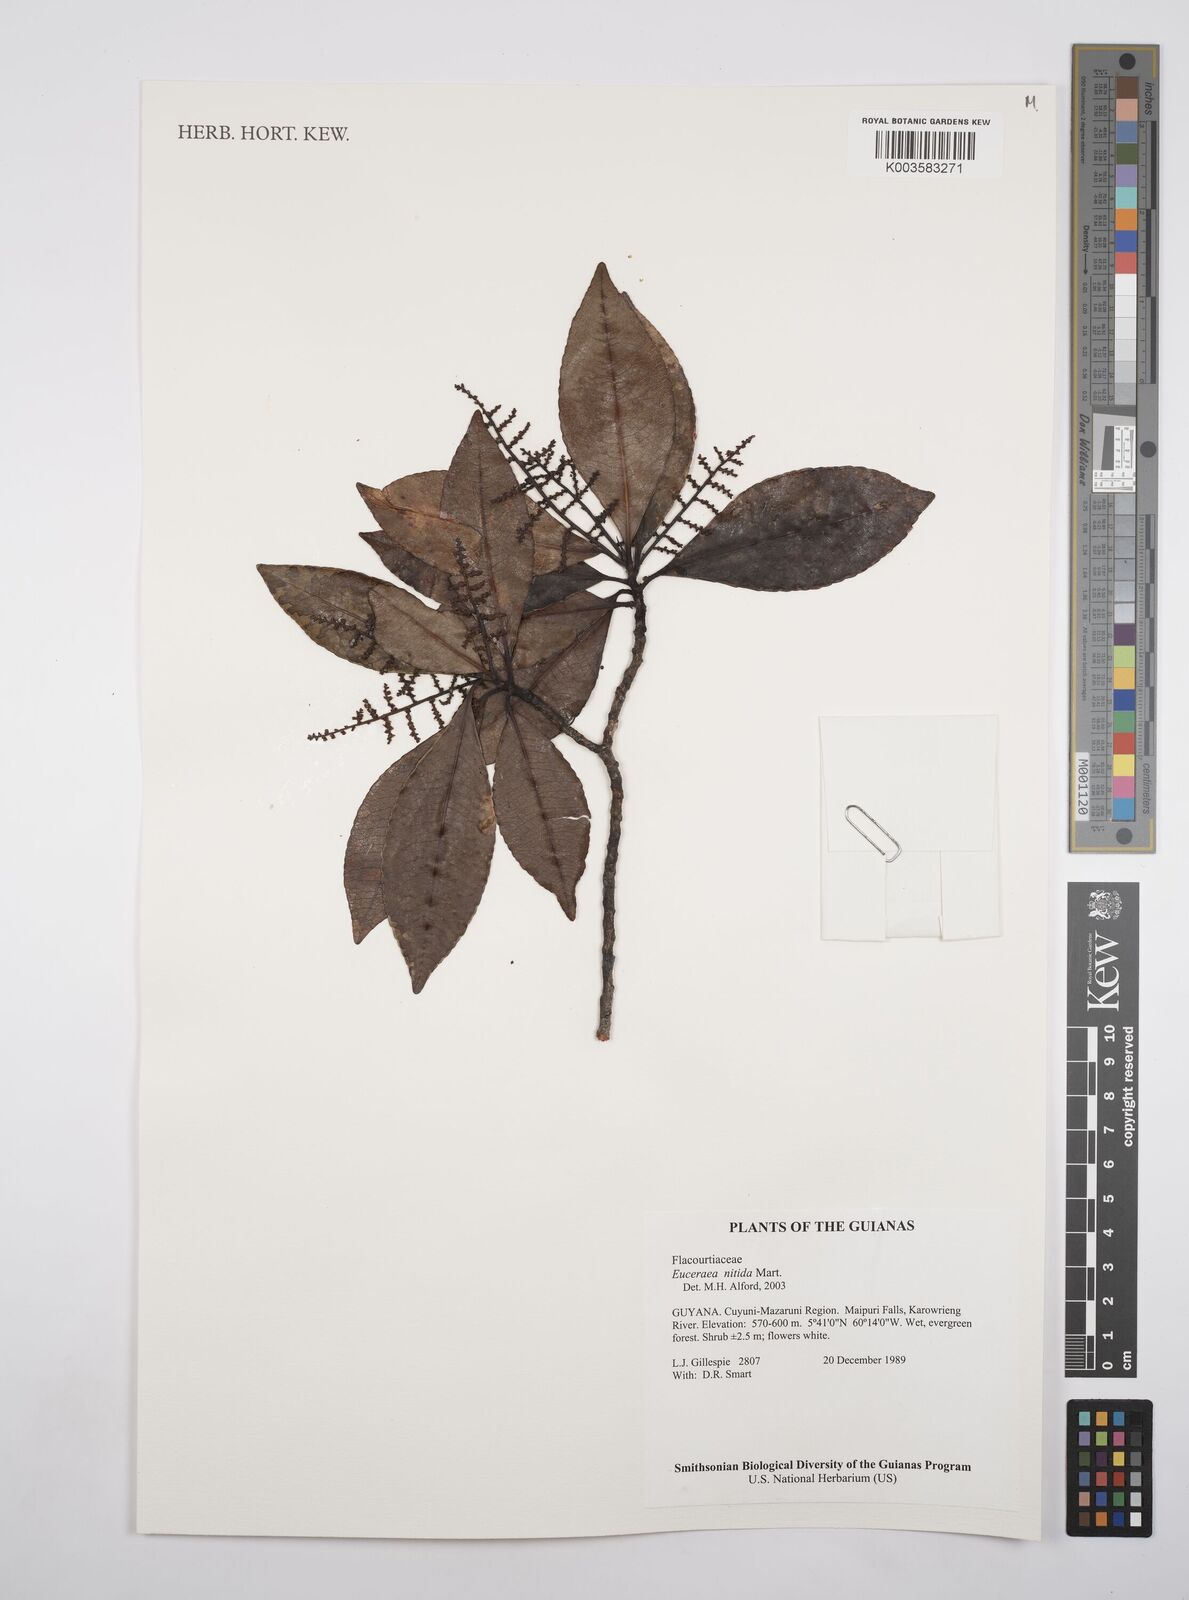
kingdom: Plantae
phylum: Tracheophyta
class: Magnoliopsida
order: Malpighiales
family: Salicaceae
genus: Casearia
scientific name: Casearia euceraea
